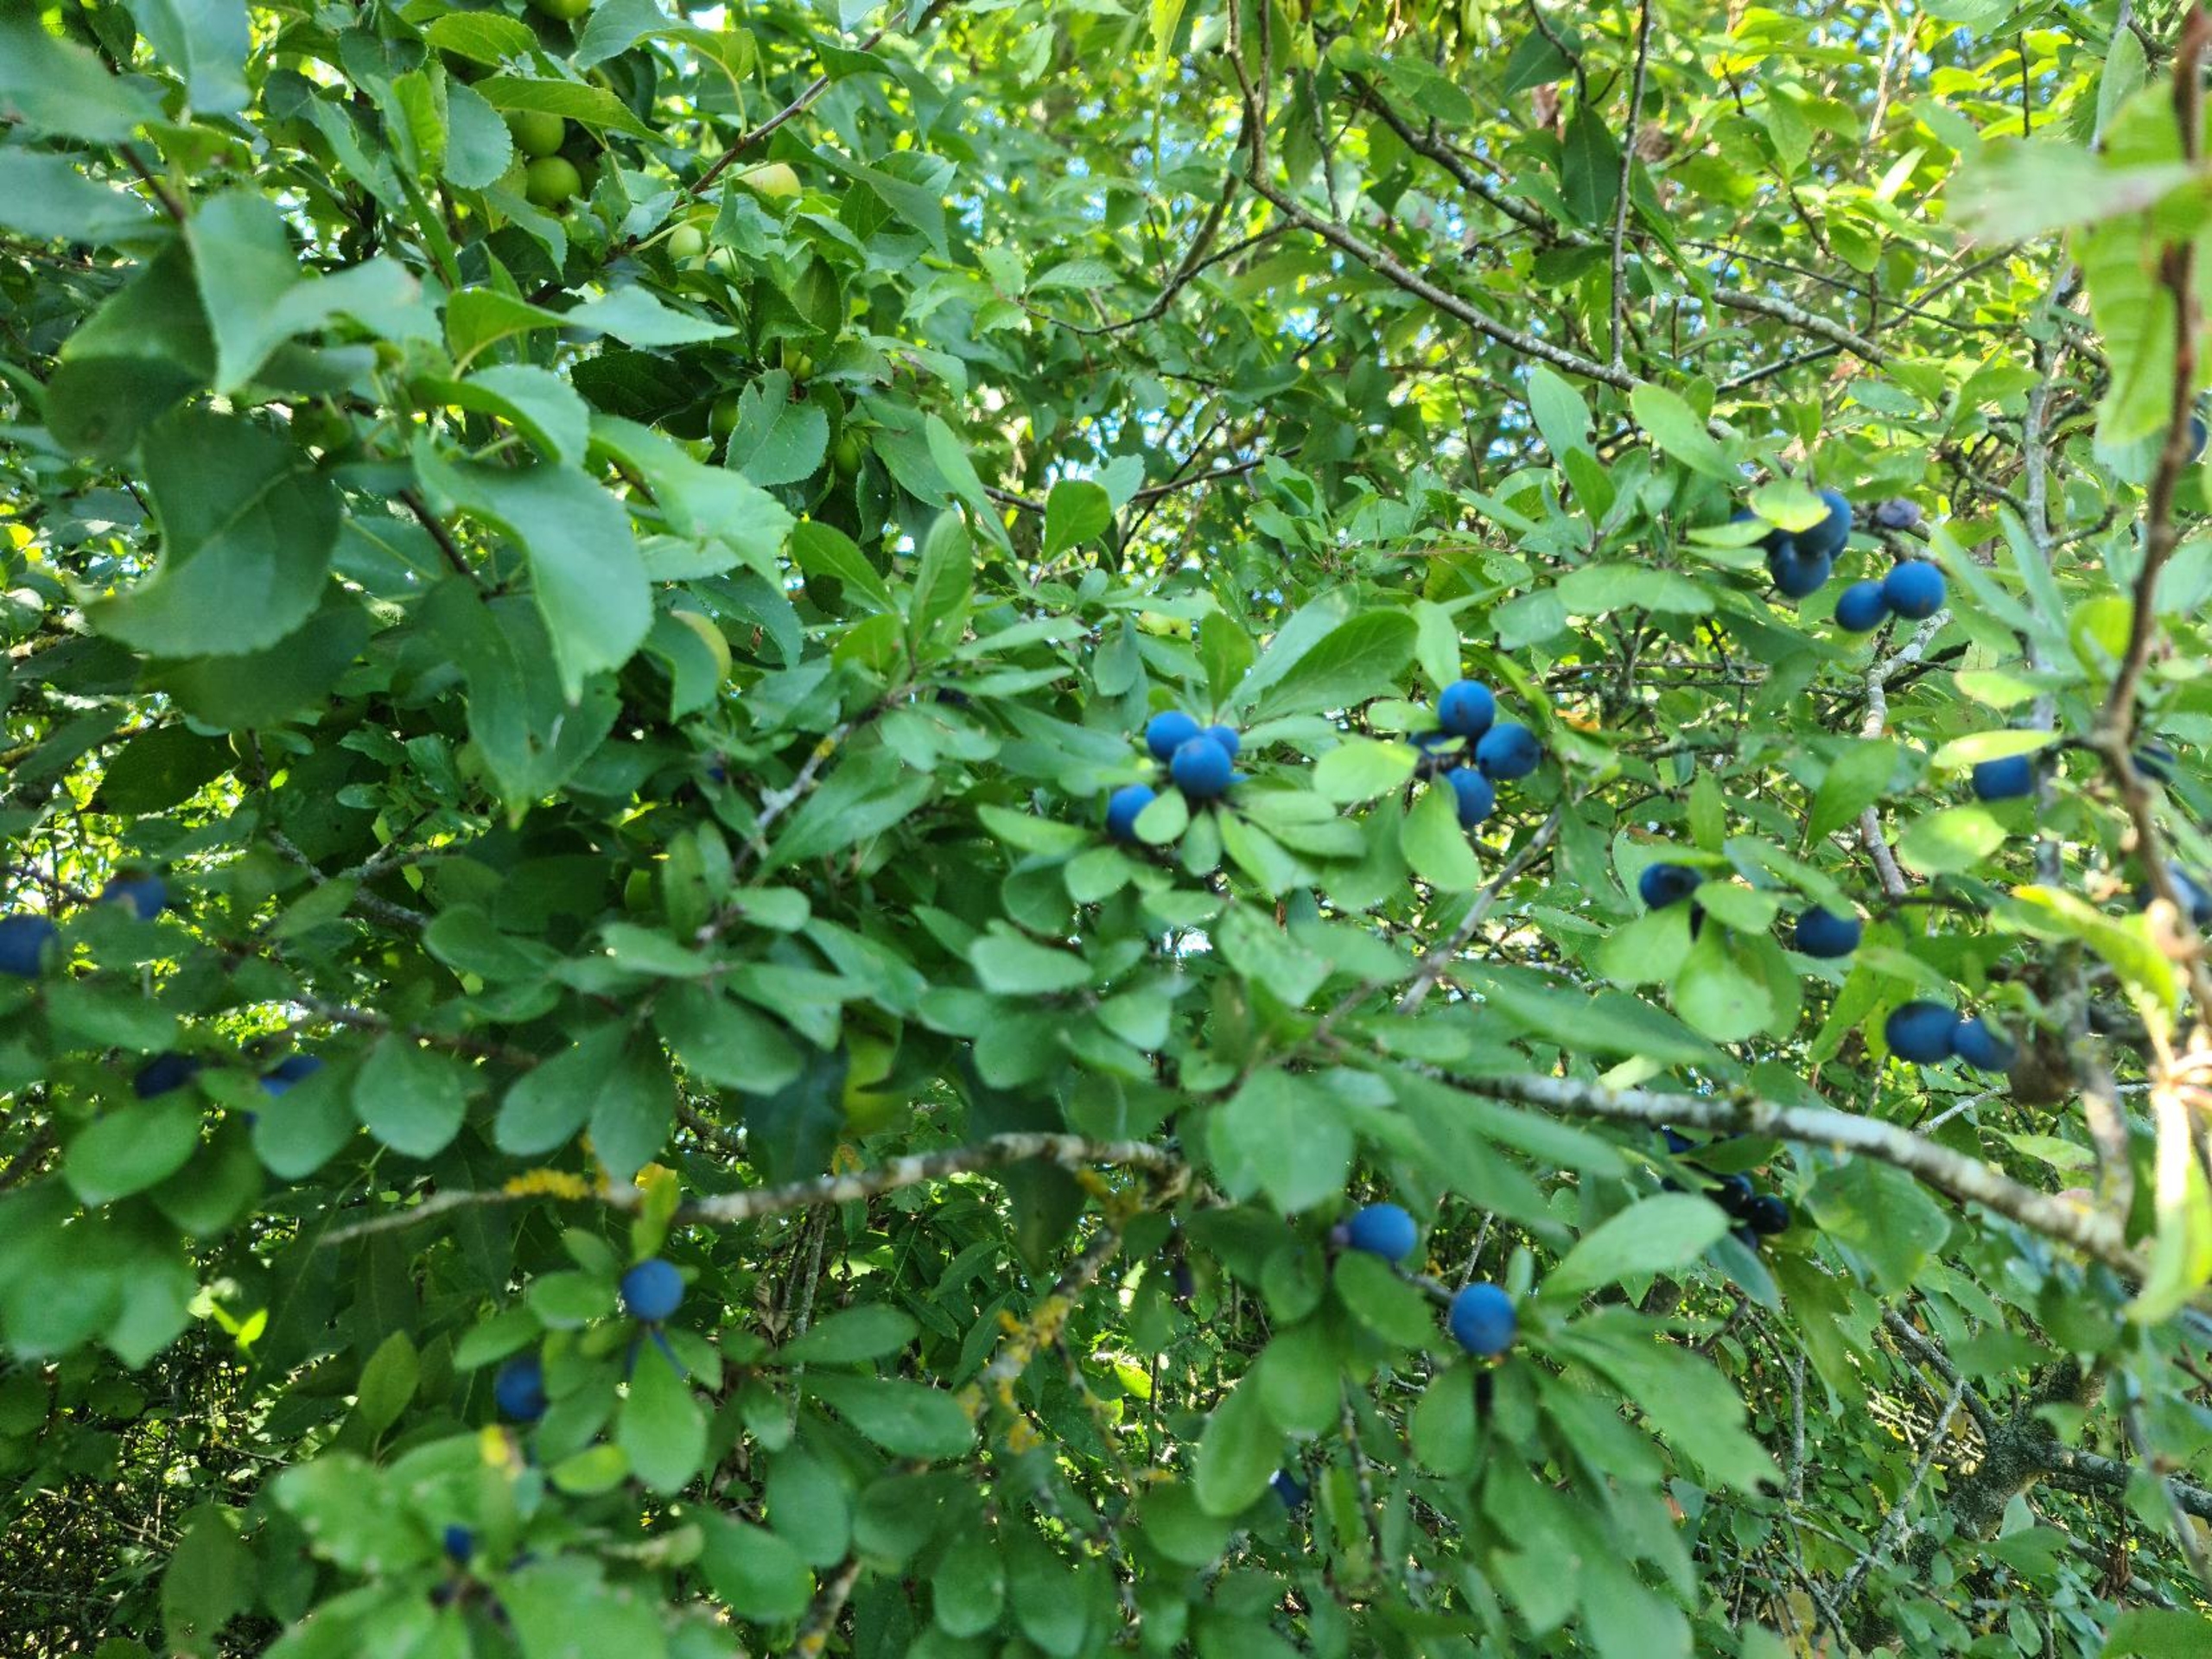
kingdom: Plantae
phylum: Tracheophyta
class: Magnoliopsida
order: Rosales
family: Rosaceae
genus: Prunus
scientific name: Prunus spinosa
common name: Slåen
